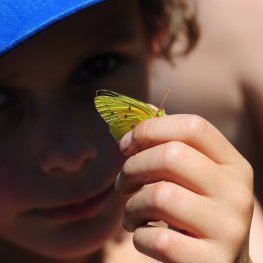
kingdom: Animalia
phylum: Arthropoda
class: Insecta
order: Lepidoptera
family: Pieridae
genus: Colias
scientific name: Colias eurytheme
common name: Orange Sulphur
